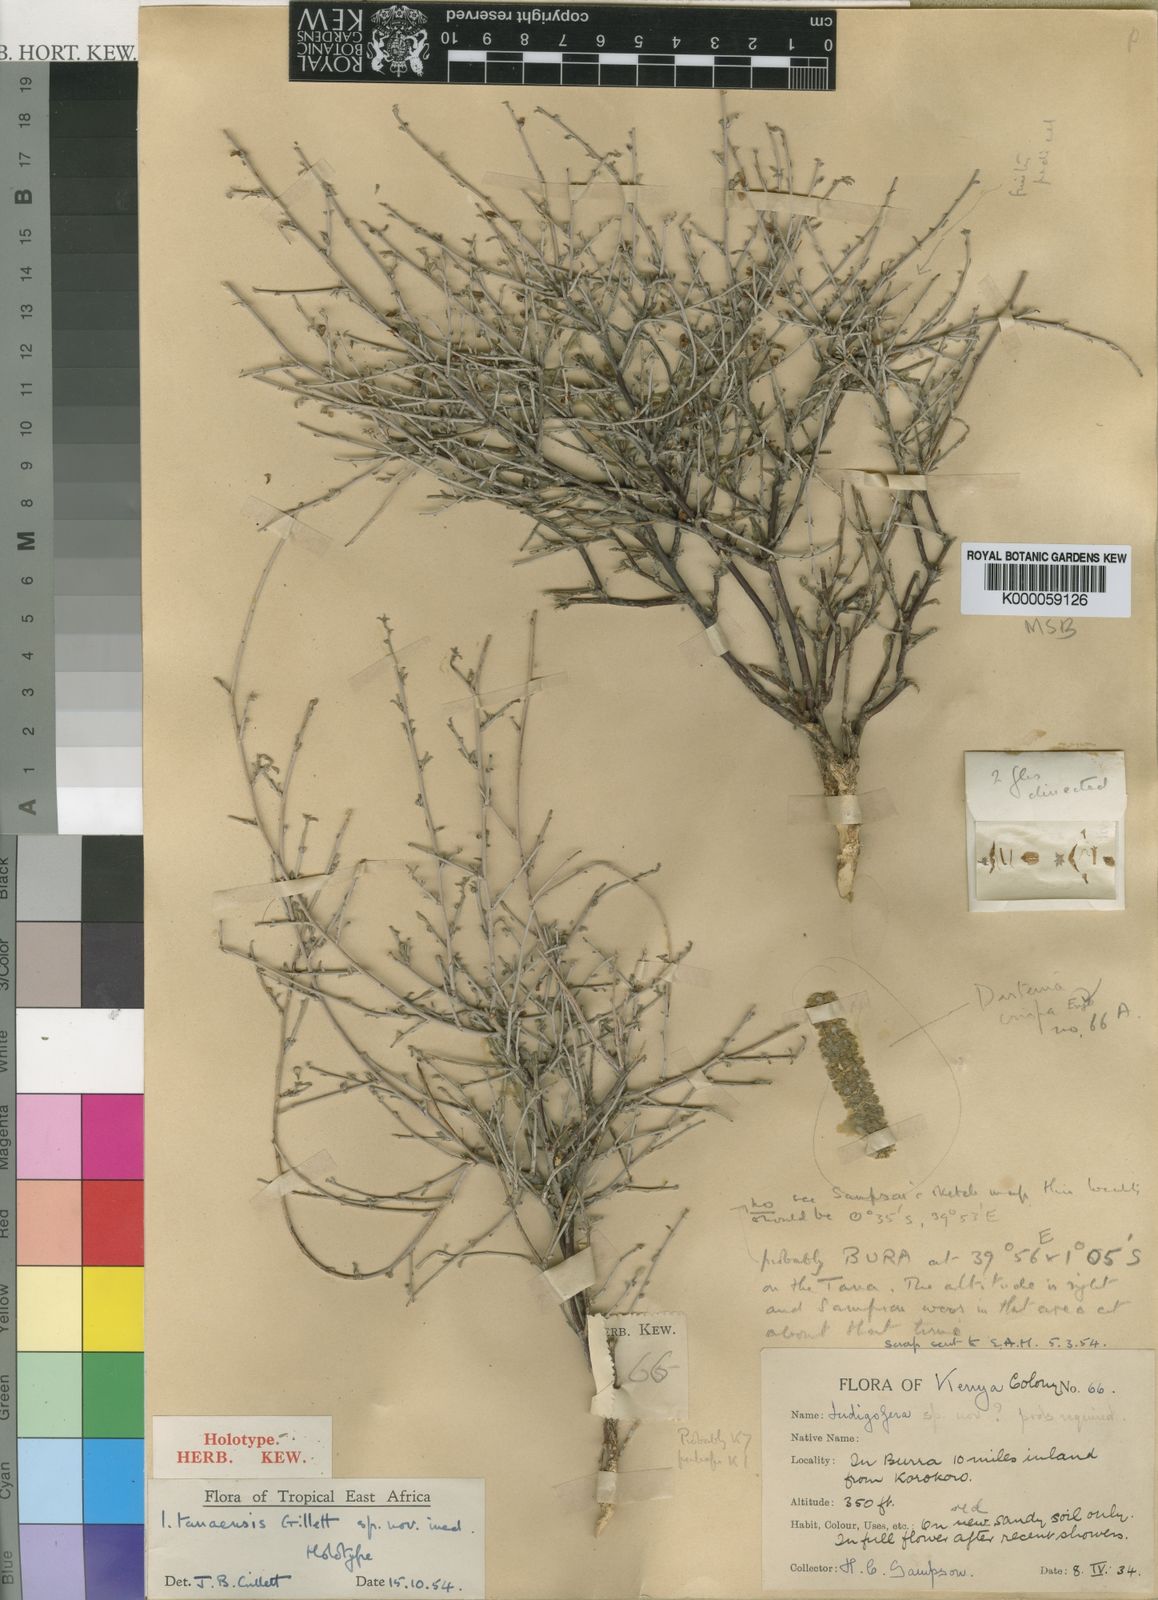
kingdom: Plantae
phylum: Tracheophyta
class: Magnoliopsida
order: Fabales
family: Fabaceae
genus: Indigofera
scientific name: Indigofera tanaensis
